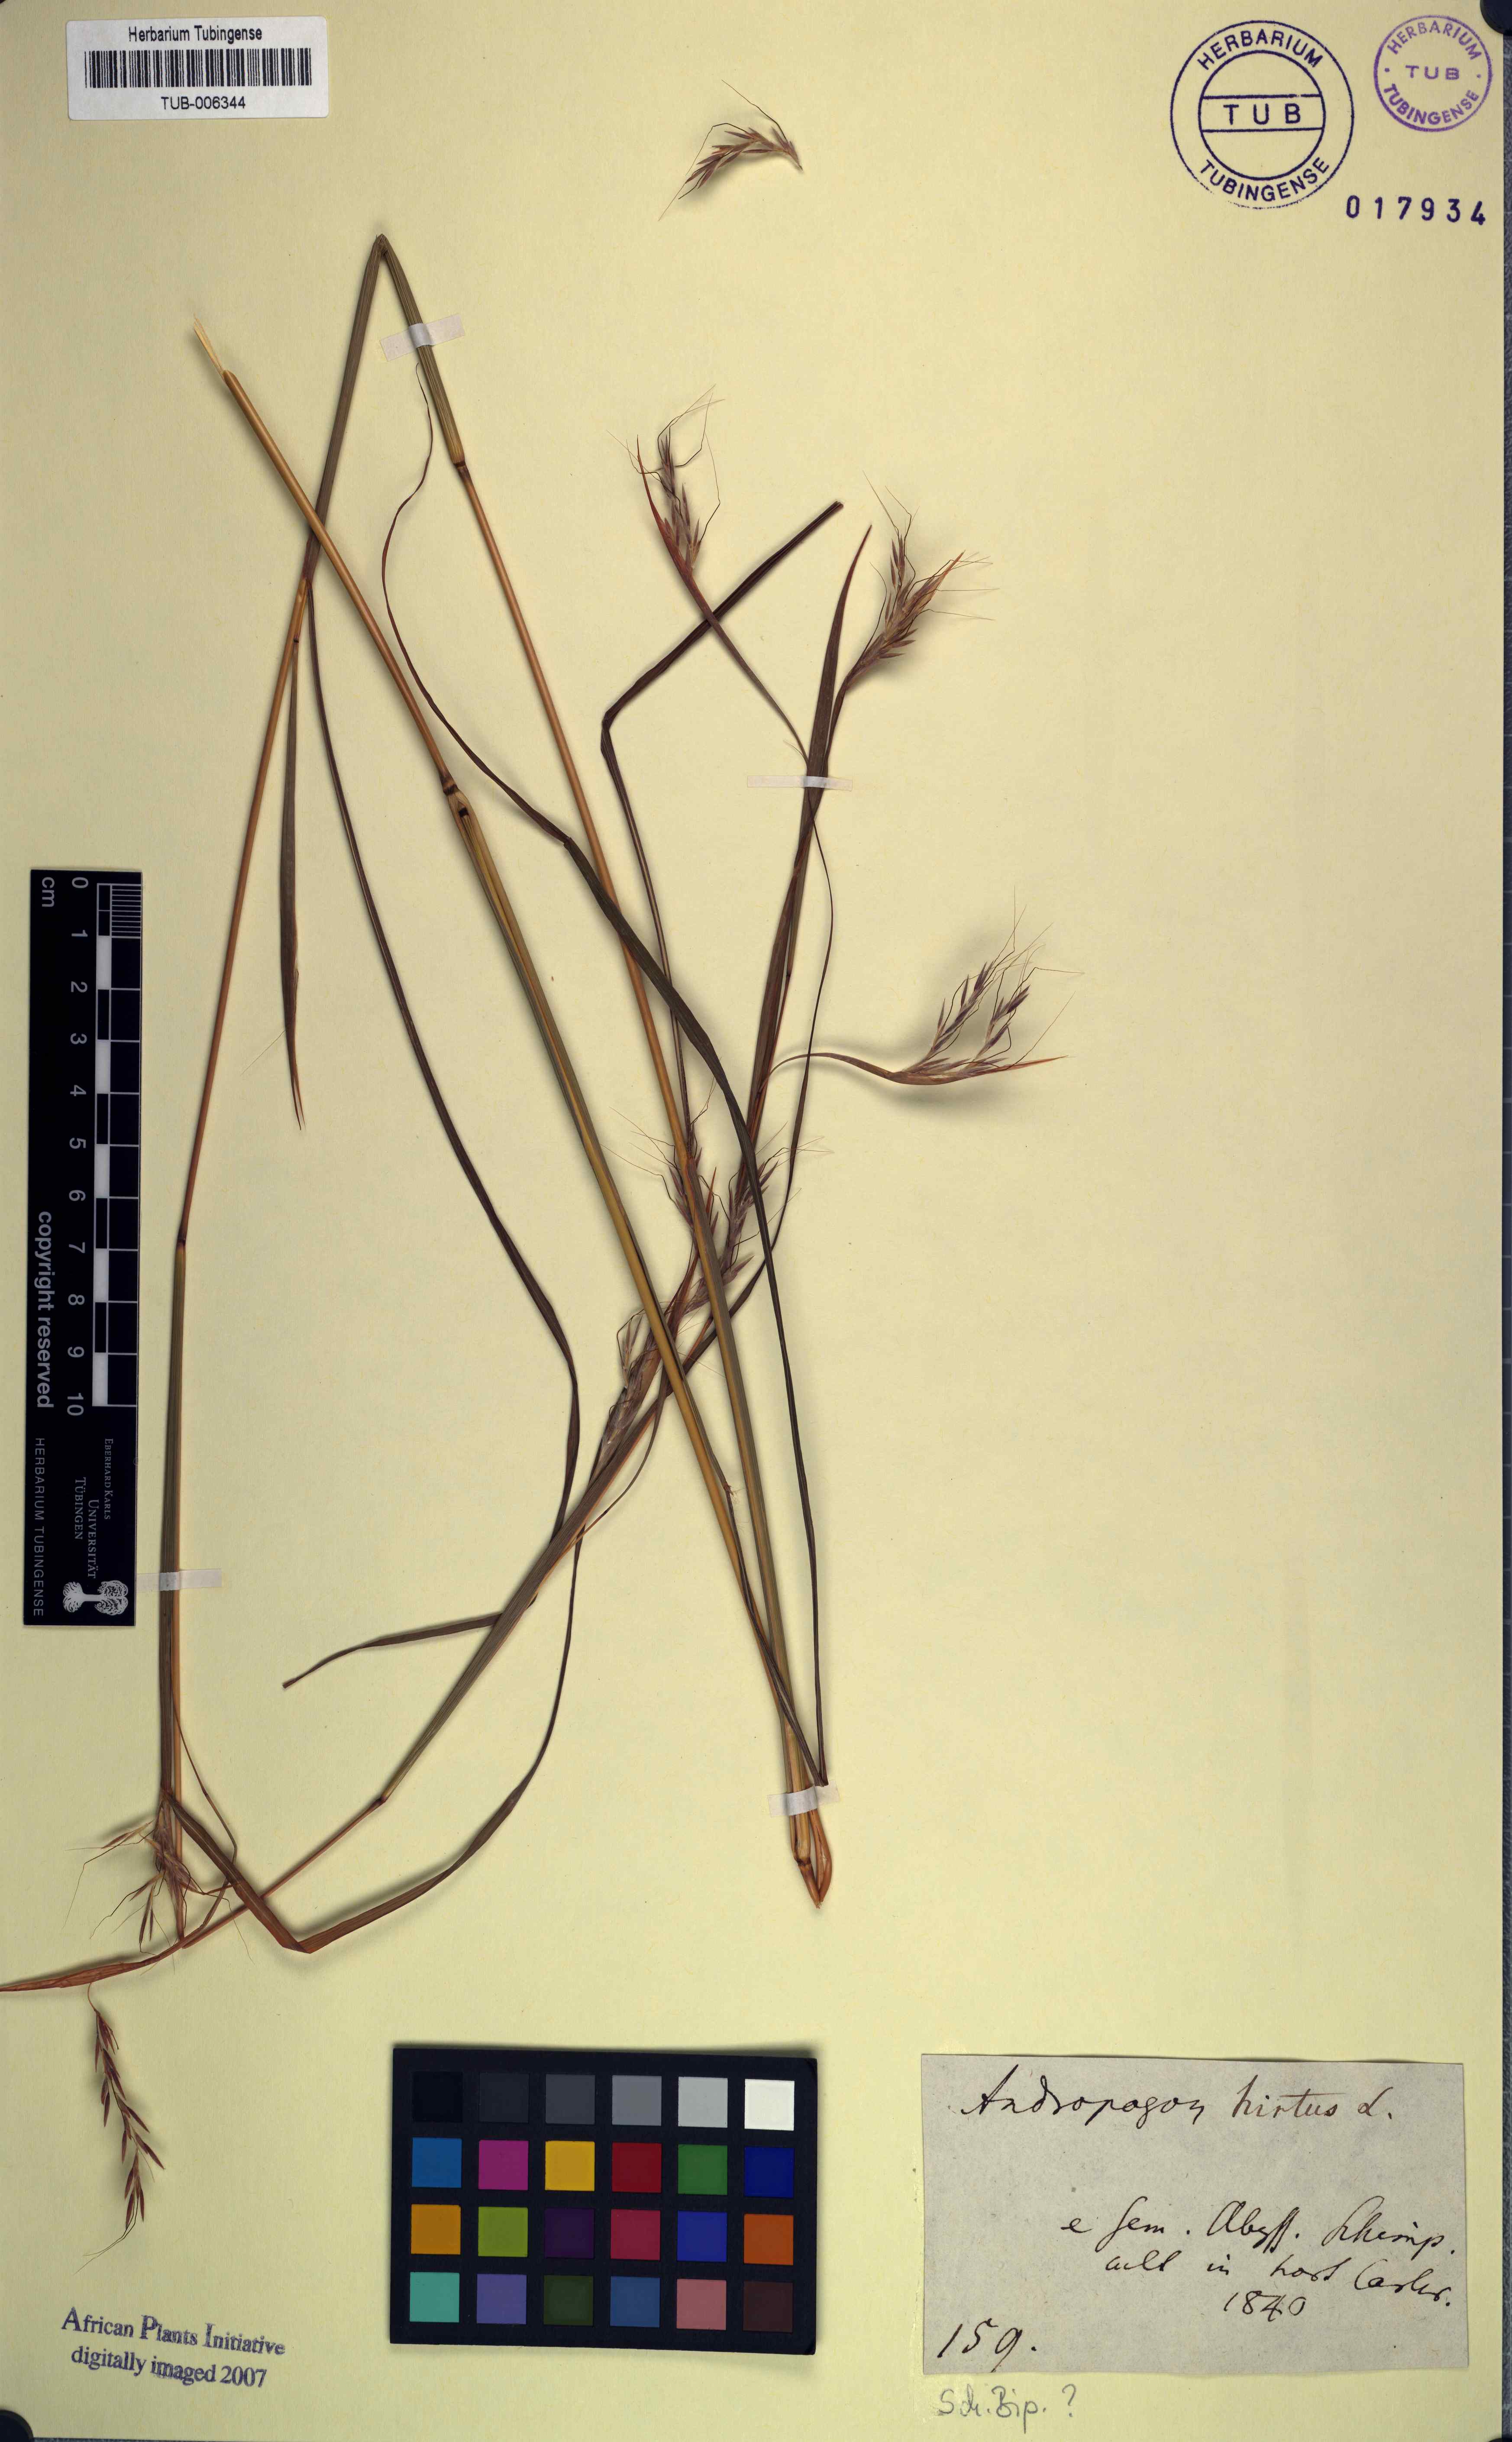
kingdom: Plantae
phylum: Tracheophyta
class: Liliopsida
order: Poales
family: Poaceae
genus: Hyparrhenia
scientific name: Hyparrhenia hirta
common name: Thatching grass
